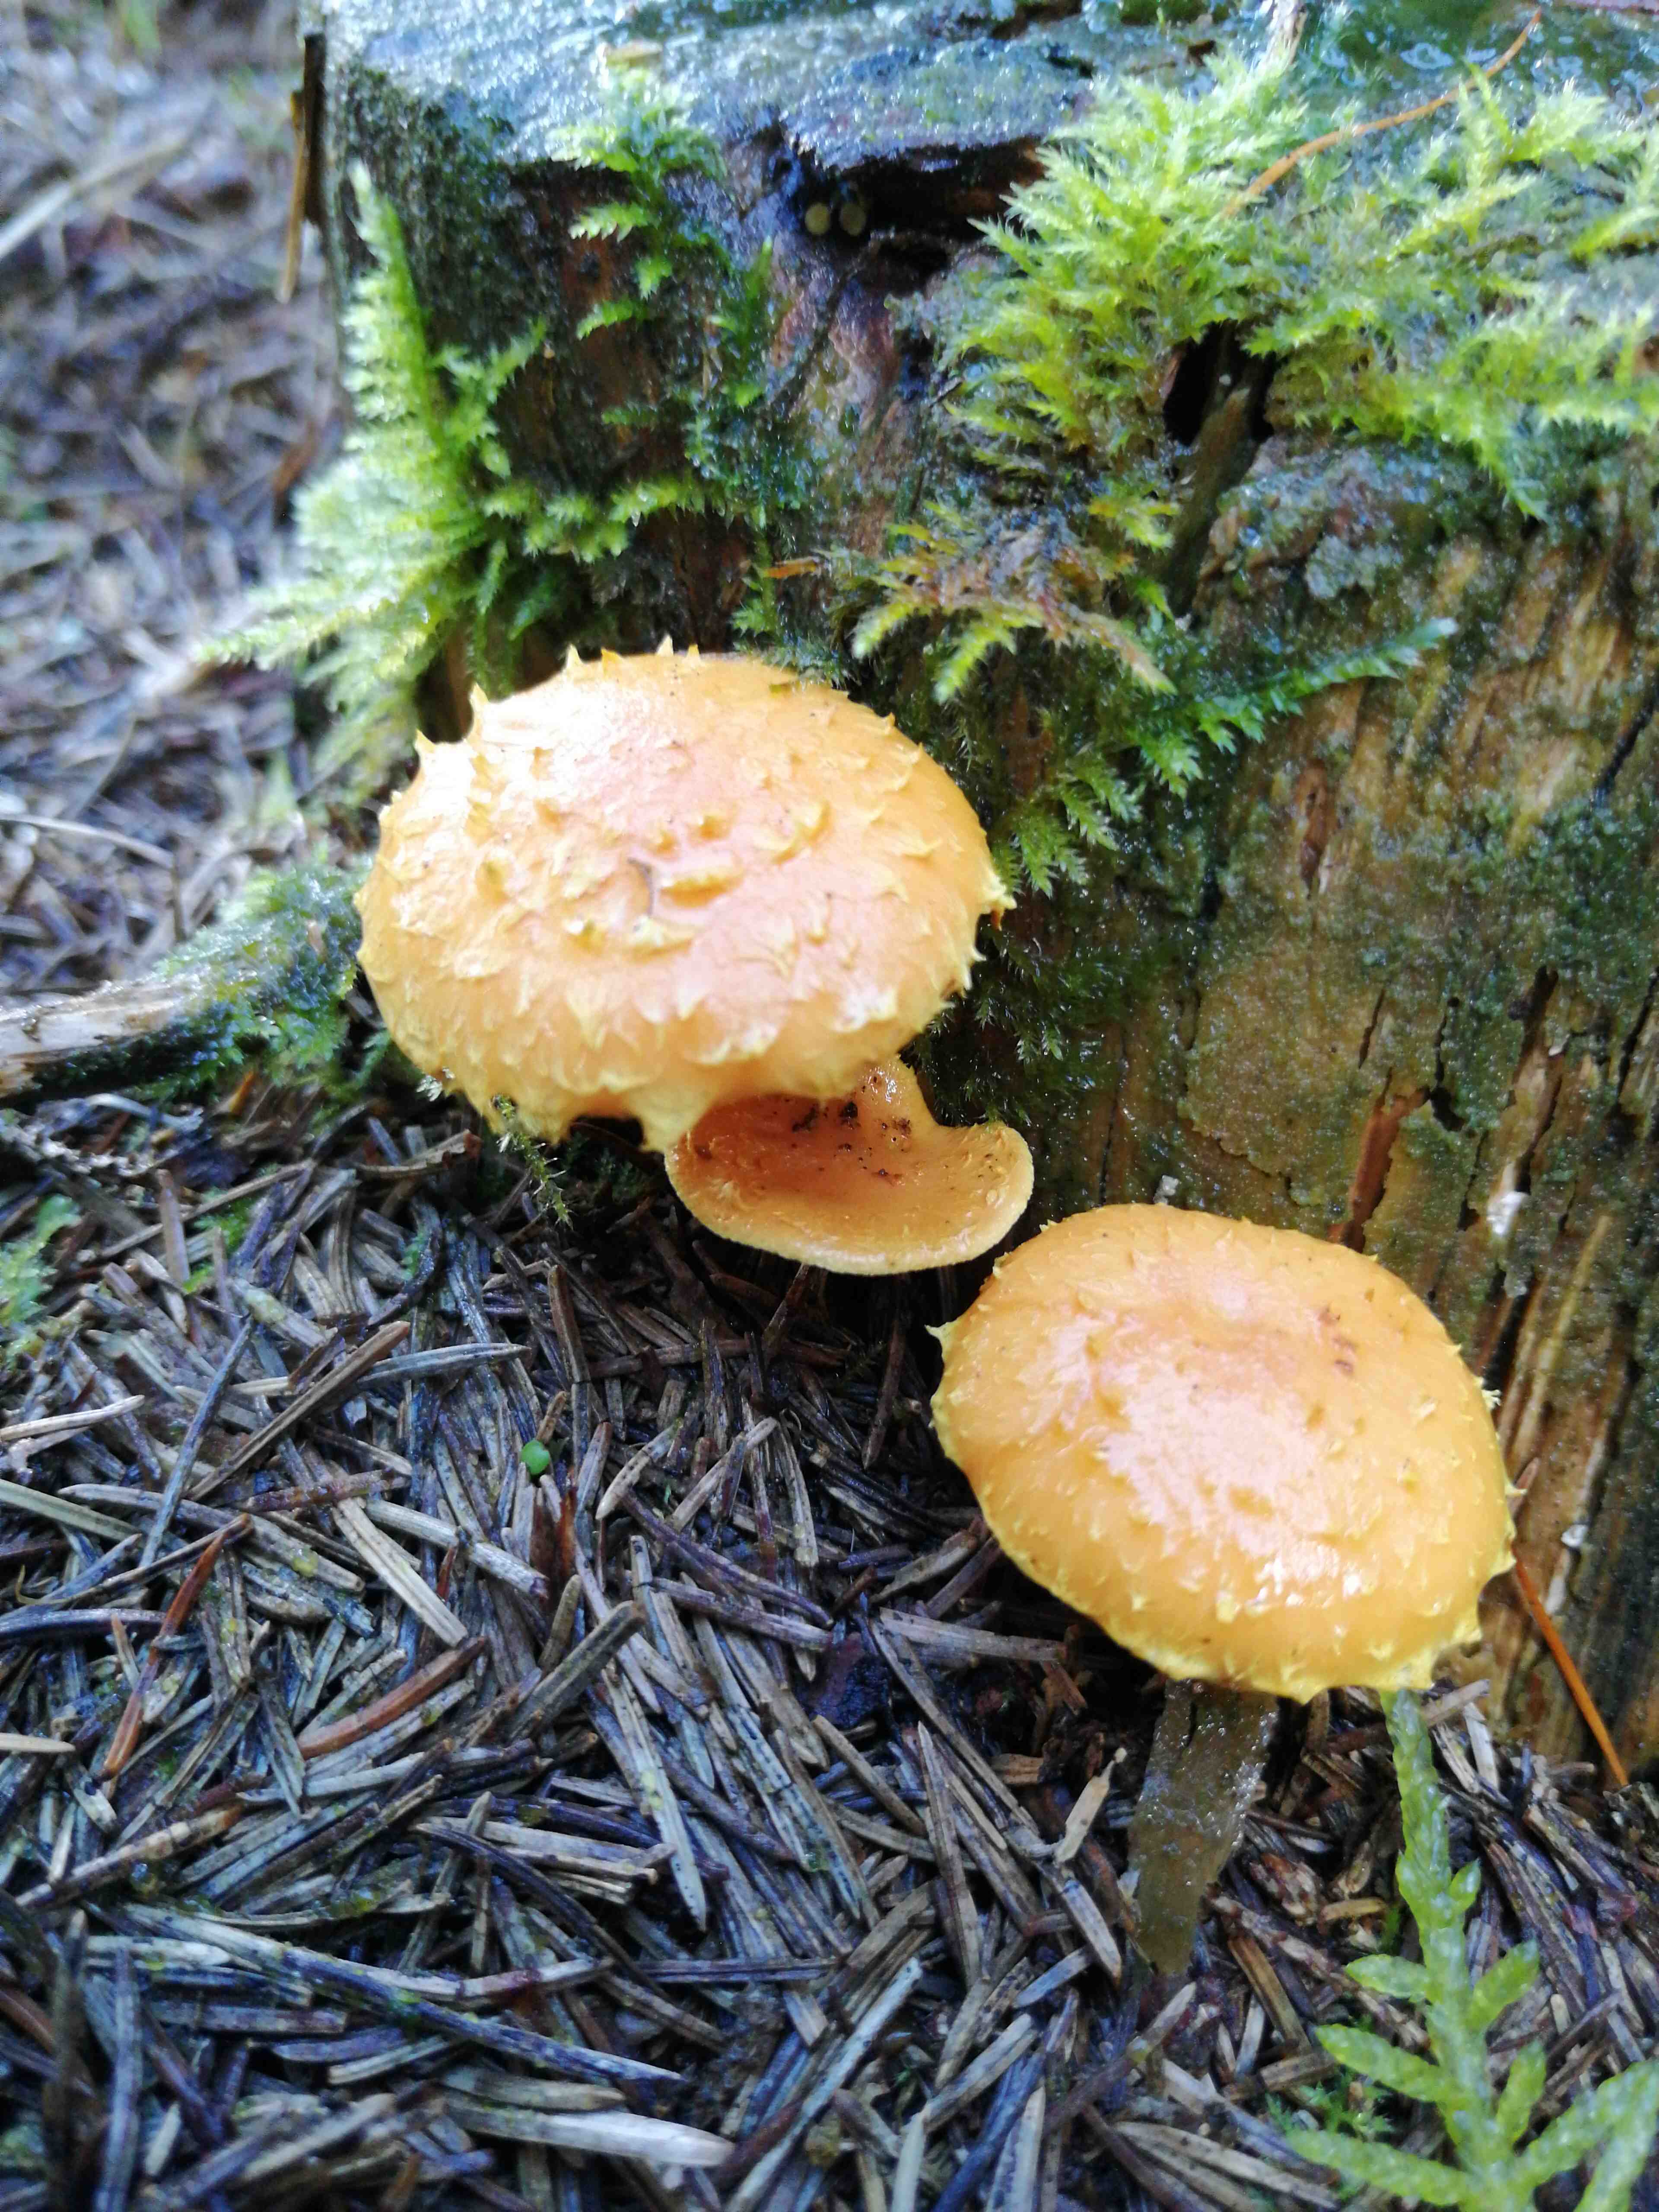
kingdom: Fungi
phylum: Basidiomycota
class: Agaricomycetes
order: Agaricales
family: Strophariaceae
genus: Pholiota
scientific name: Pholiota flammans
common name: flamme-skælhat
